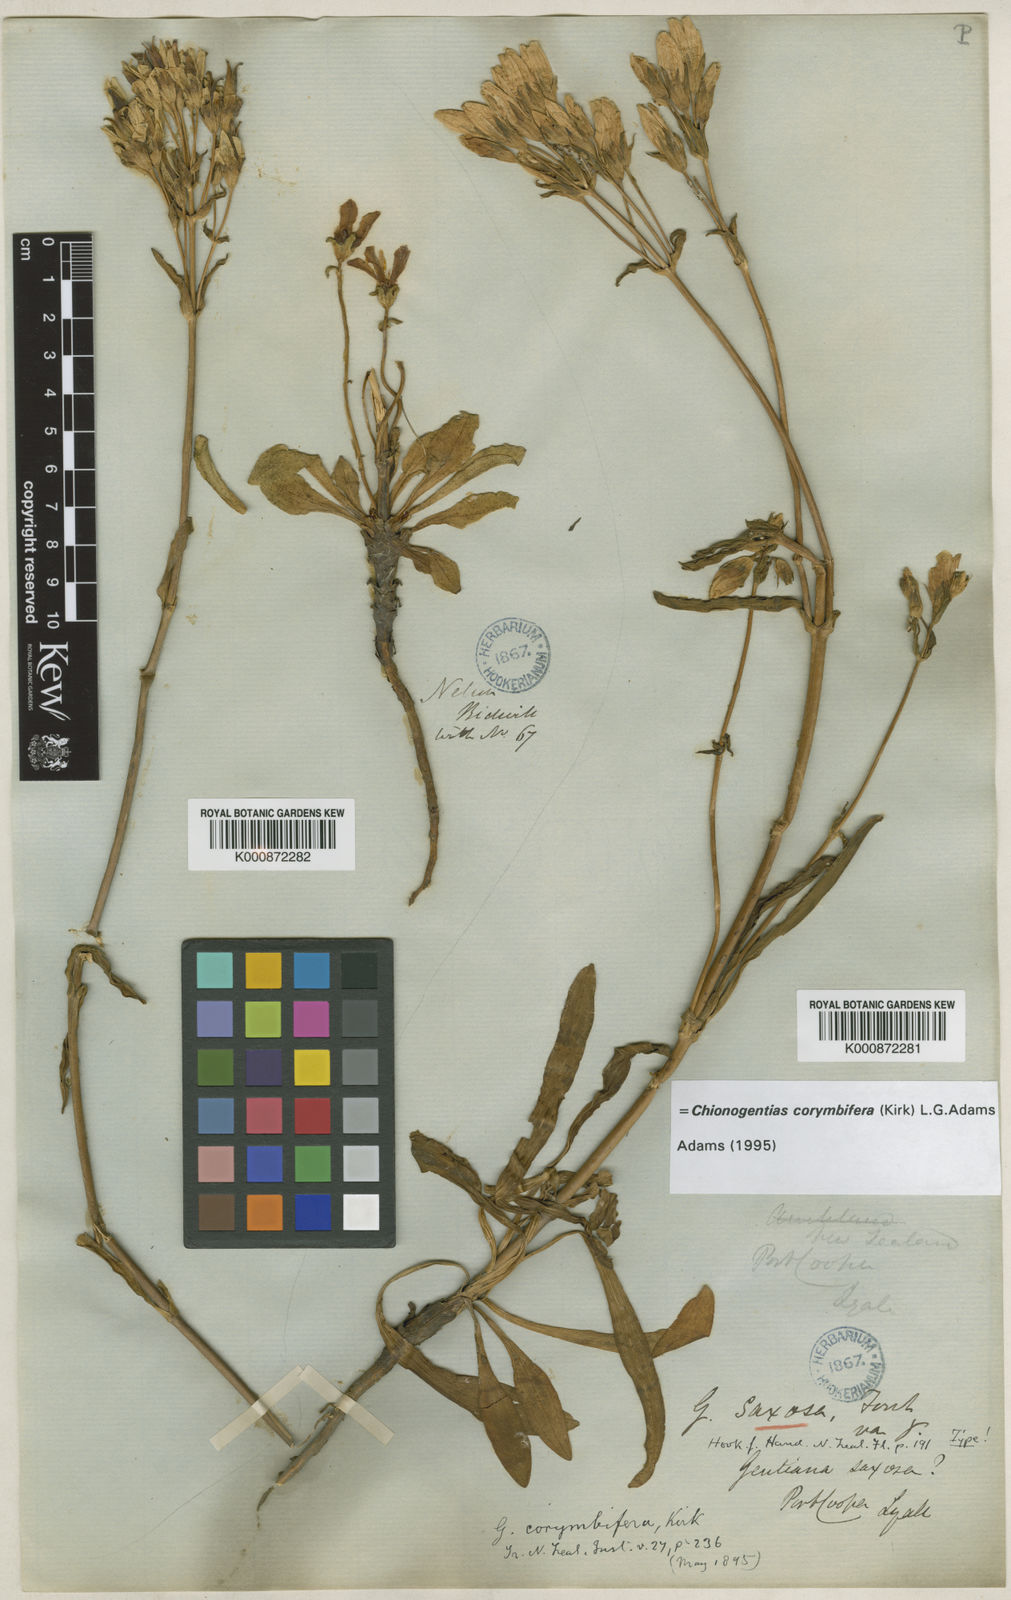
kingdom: Plantae
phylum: Tracheophyta
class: Magnoliopsida
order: Gentianales
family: Gentianaceae
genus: Gentianella
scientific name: Gentianella corymbifera
